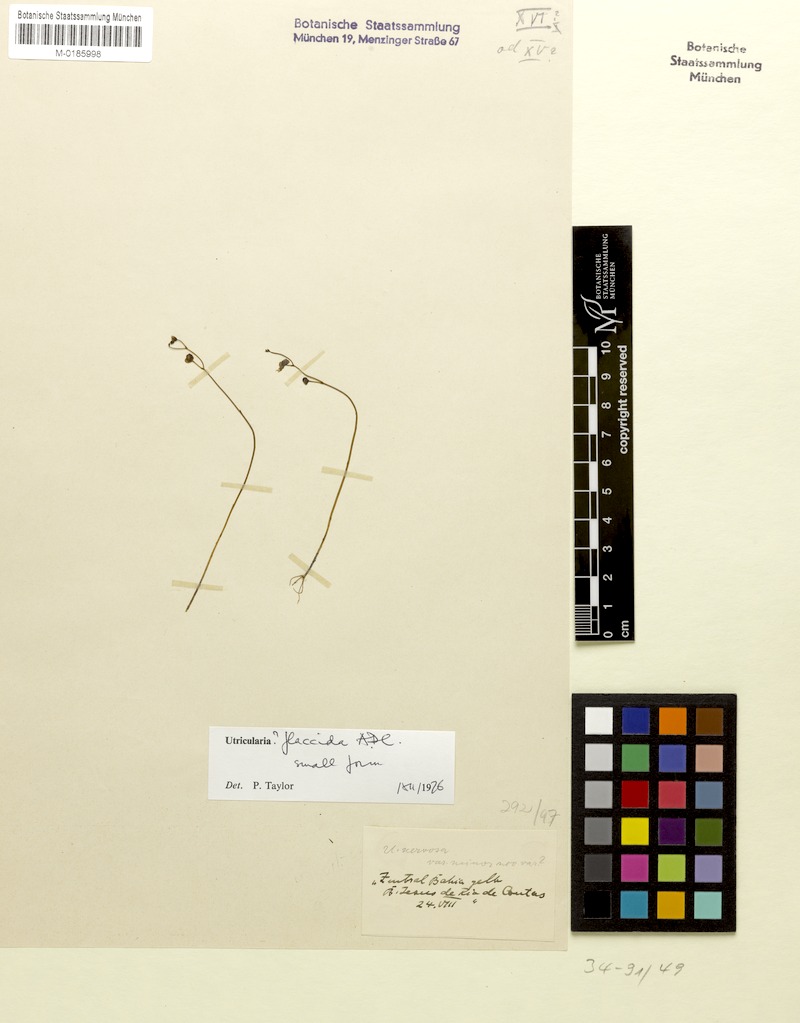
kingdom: Plantae
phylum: Tracheophyta
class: Magnoliopsida
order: Lamiales
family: Lentibulariaceae
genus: Utricularia
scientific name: Utricularia nervosa
